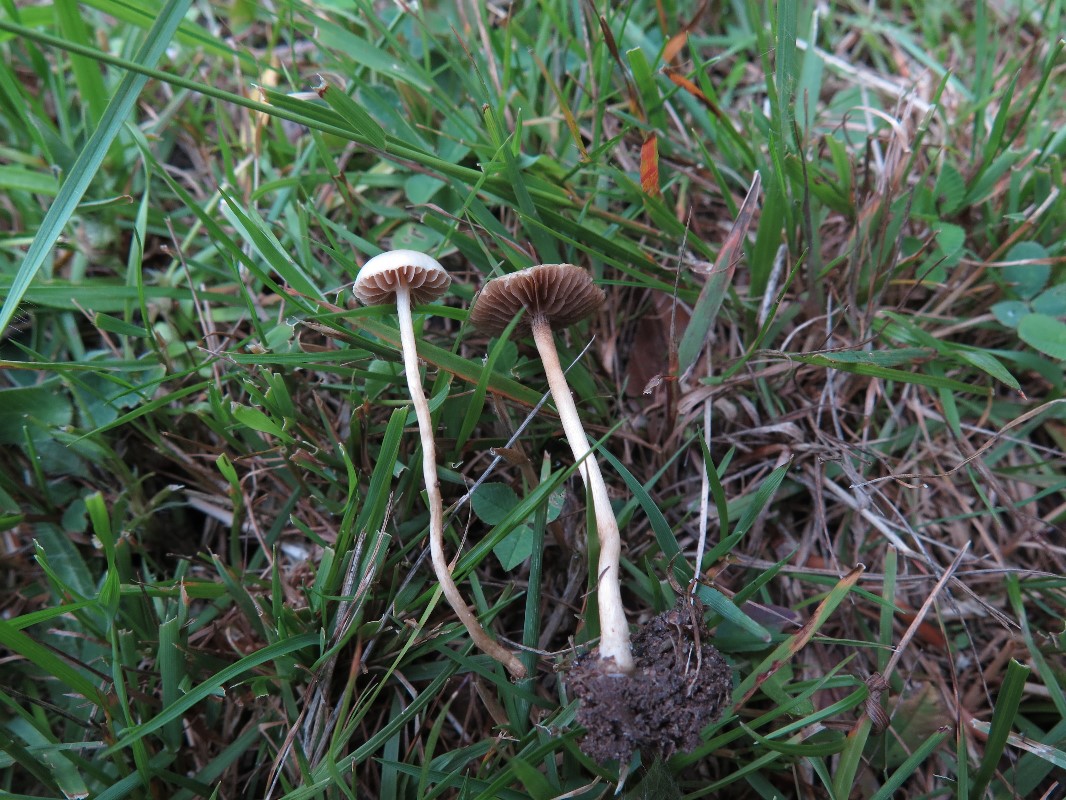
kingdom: Fungi
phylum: Basidiomycota
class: Agaricomycetes
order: Agaricales
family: Strophariaceae
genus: Agrocybe
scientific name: Agrocybe pediades
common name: almindelig agerhat
